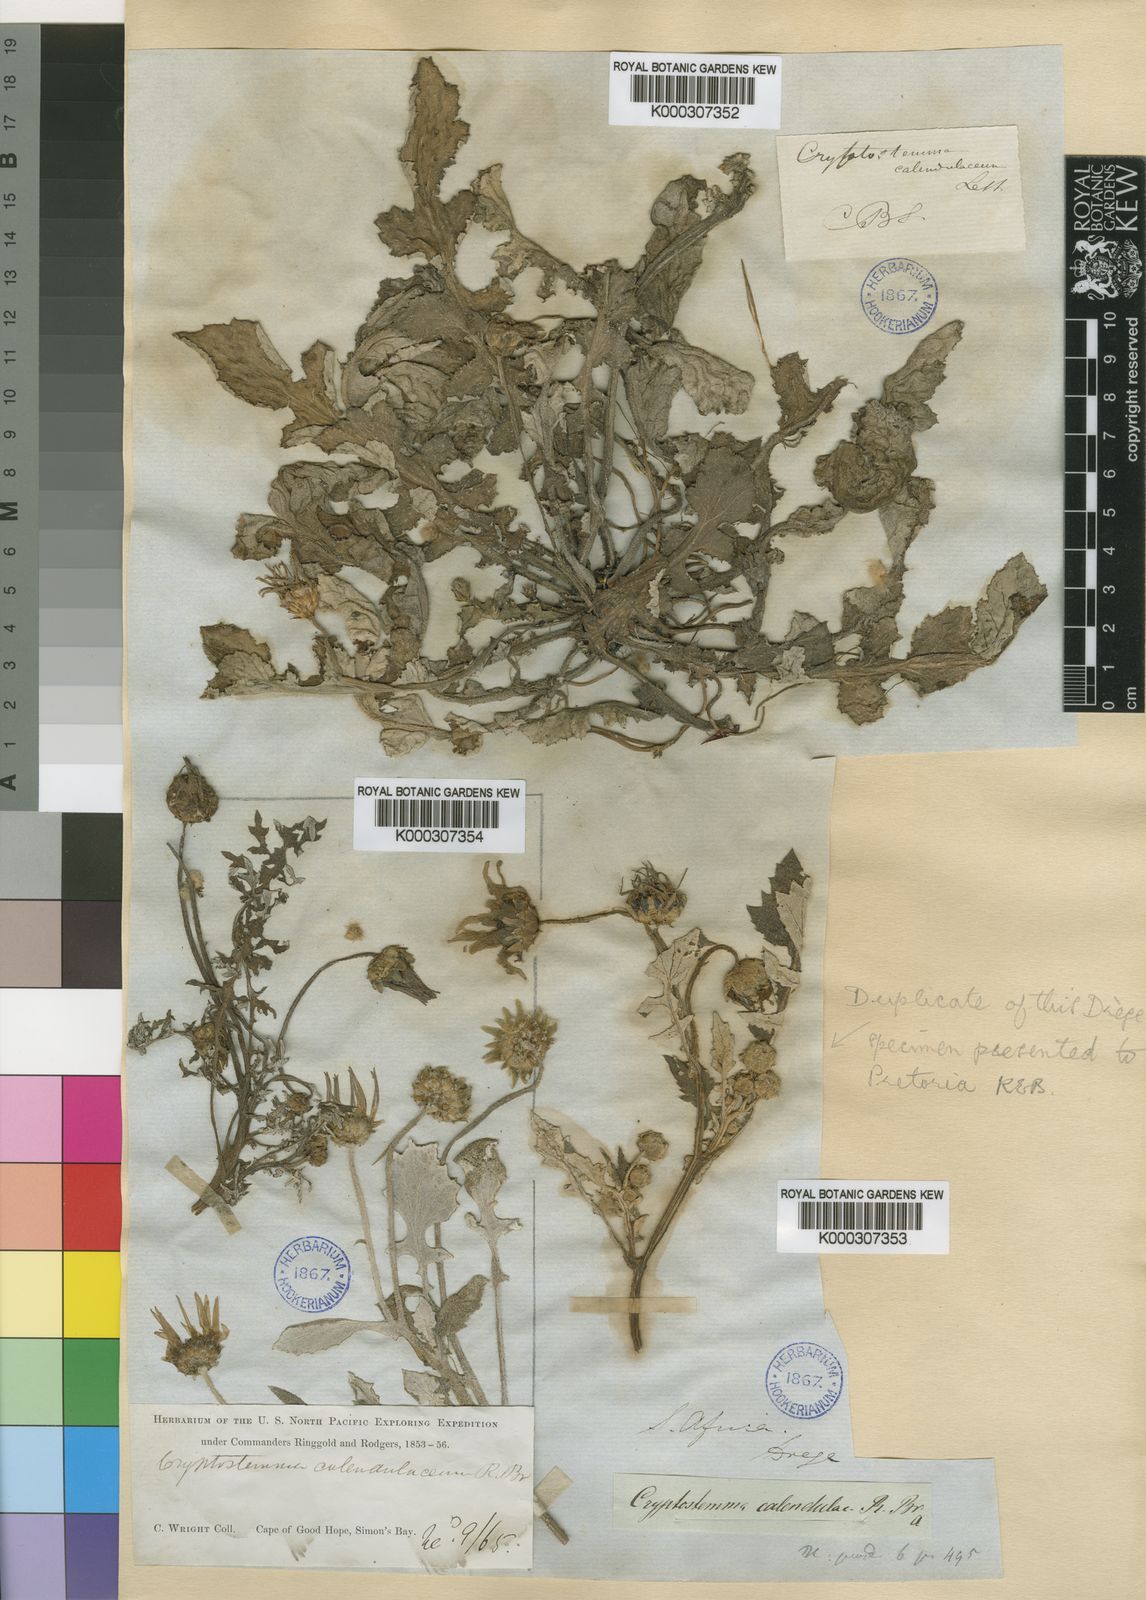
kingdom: Plantae
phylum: Tracheophyta
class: Magnoliopsida
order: Asterales
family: Asteraceae
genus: Arctotheca
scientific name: Arctotheca calendula
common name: Capeweed
